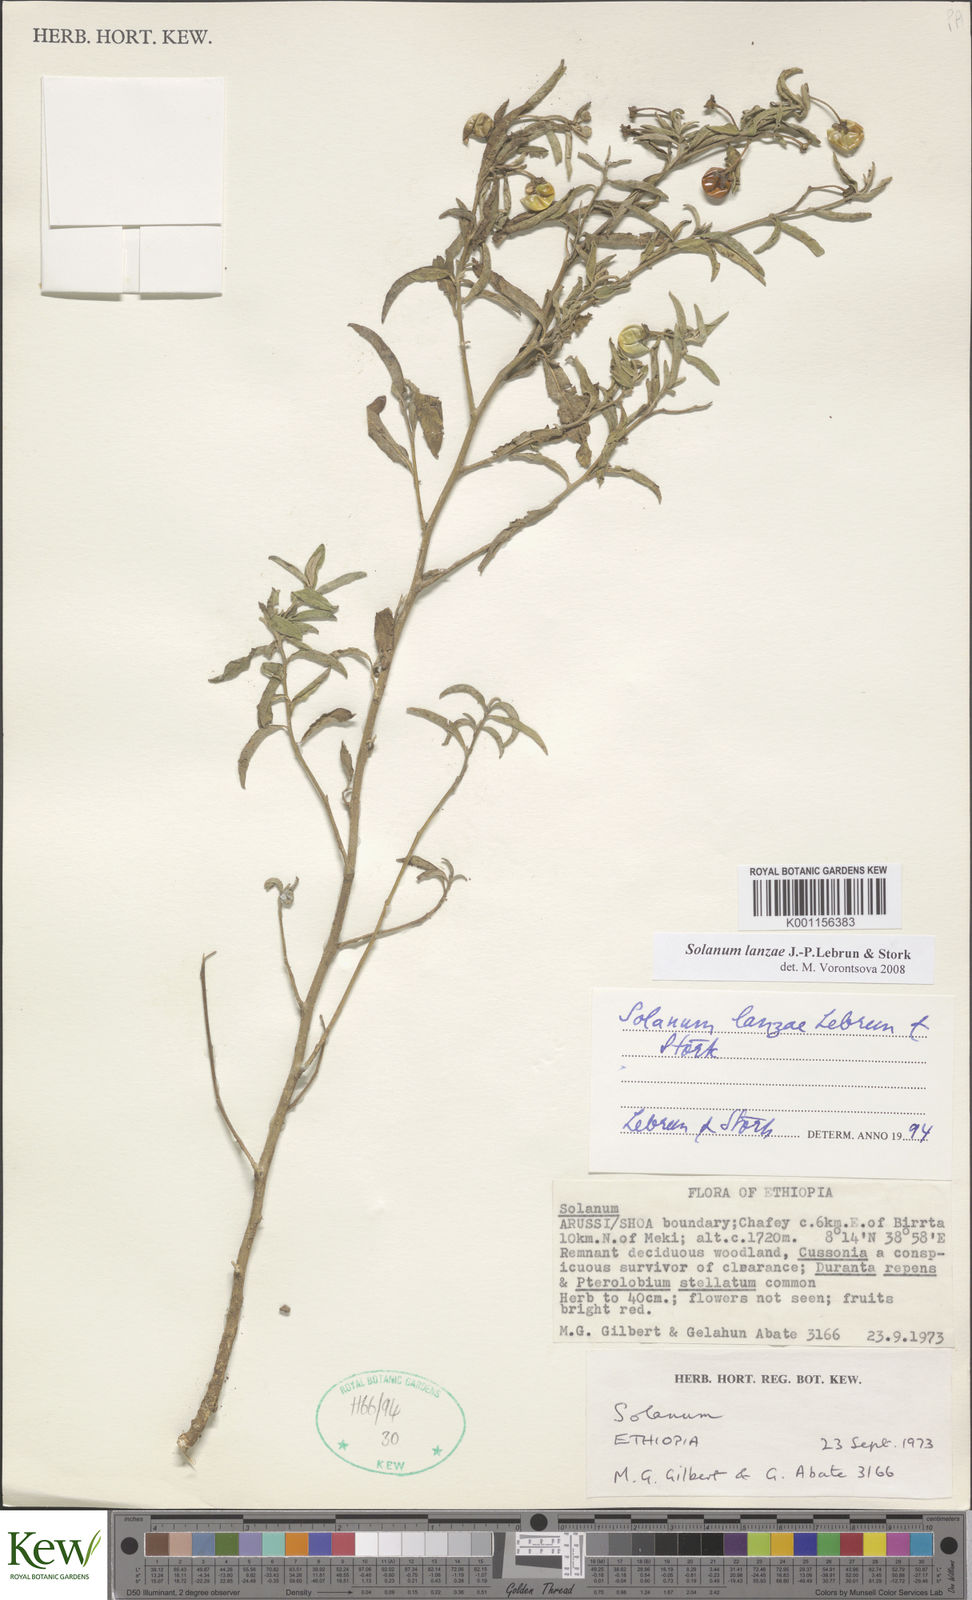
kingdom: Plantae
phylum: Tracheophyta
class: Magnoliopsida
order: Solanales
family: Solanaceae
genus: Solanum
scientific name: Solanum lanzae
